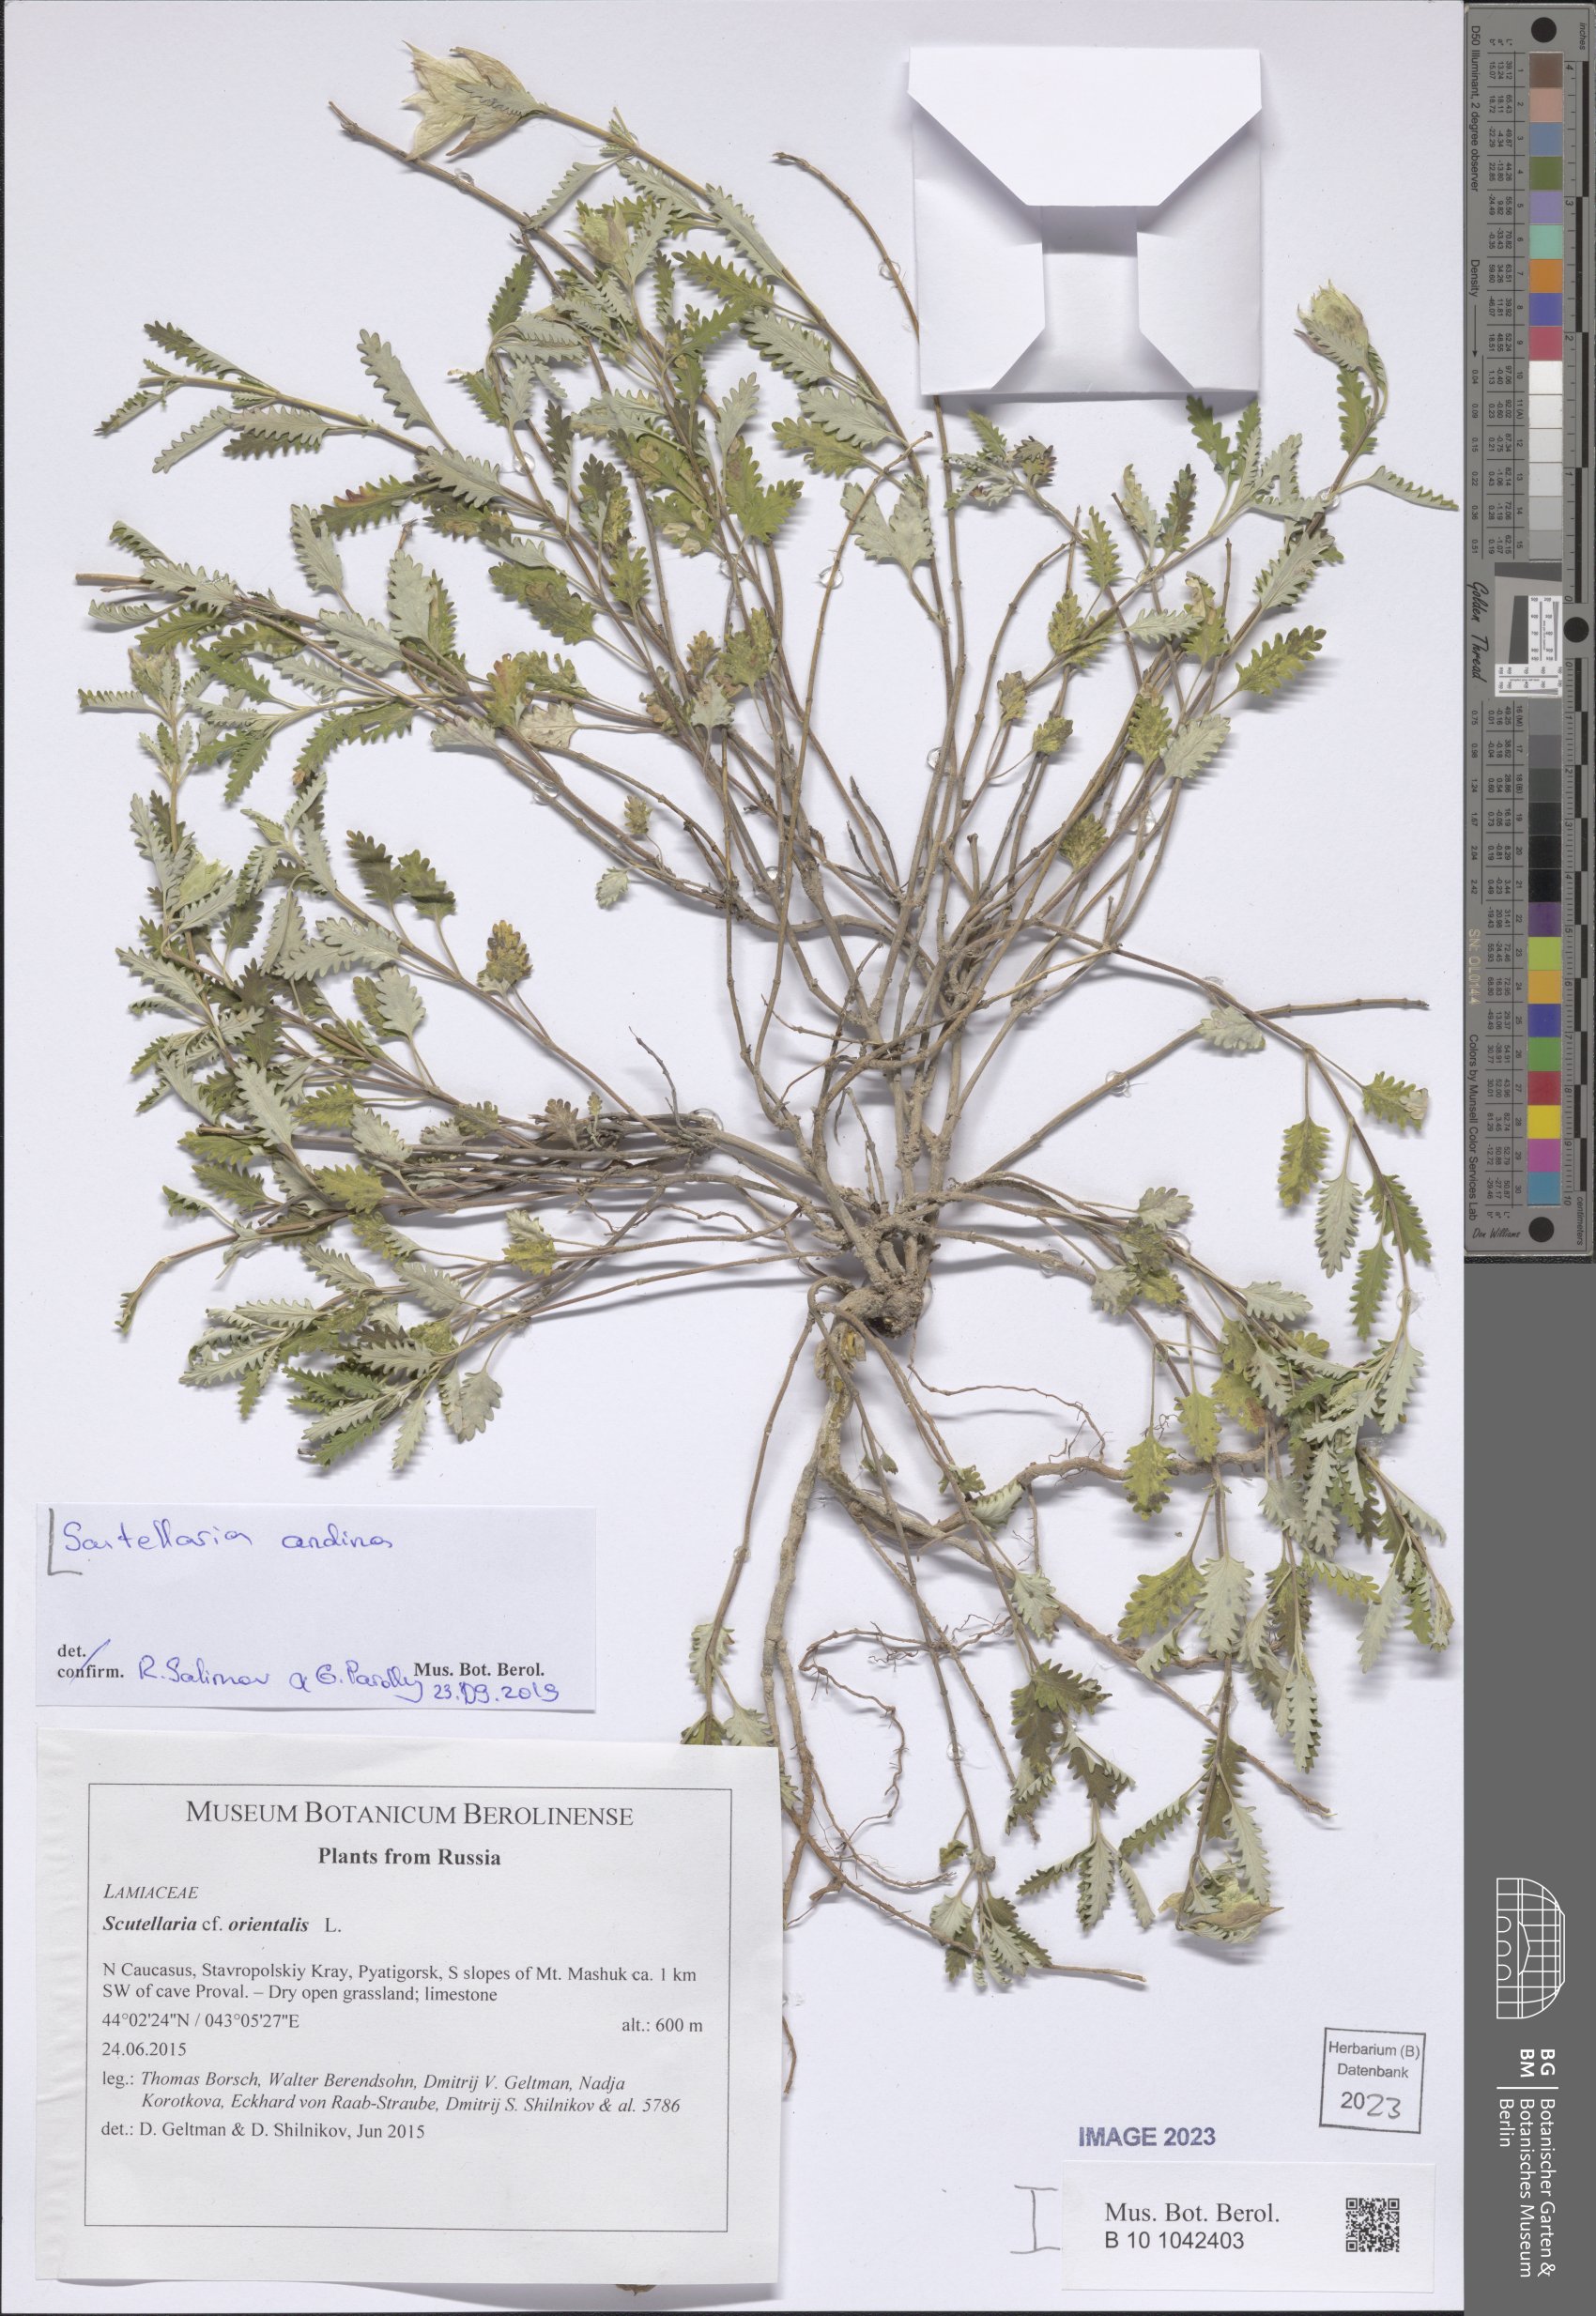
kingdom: Plantae
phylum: Tracheophyta
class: Magnoliopsida
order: Lamiales
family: Lamiaceae
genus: Scutellaria
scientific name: Scutellaria andina
